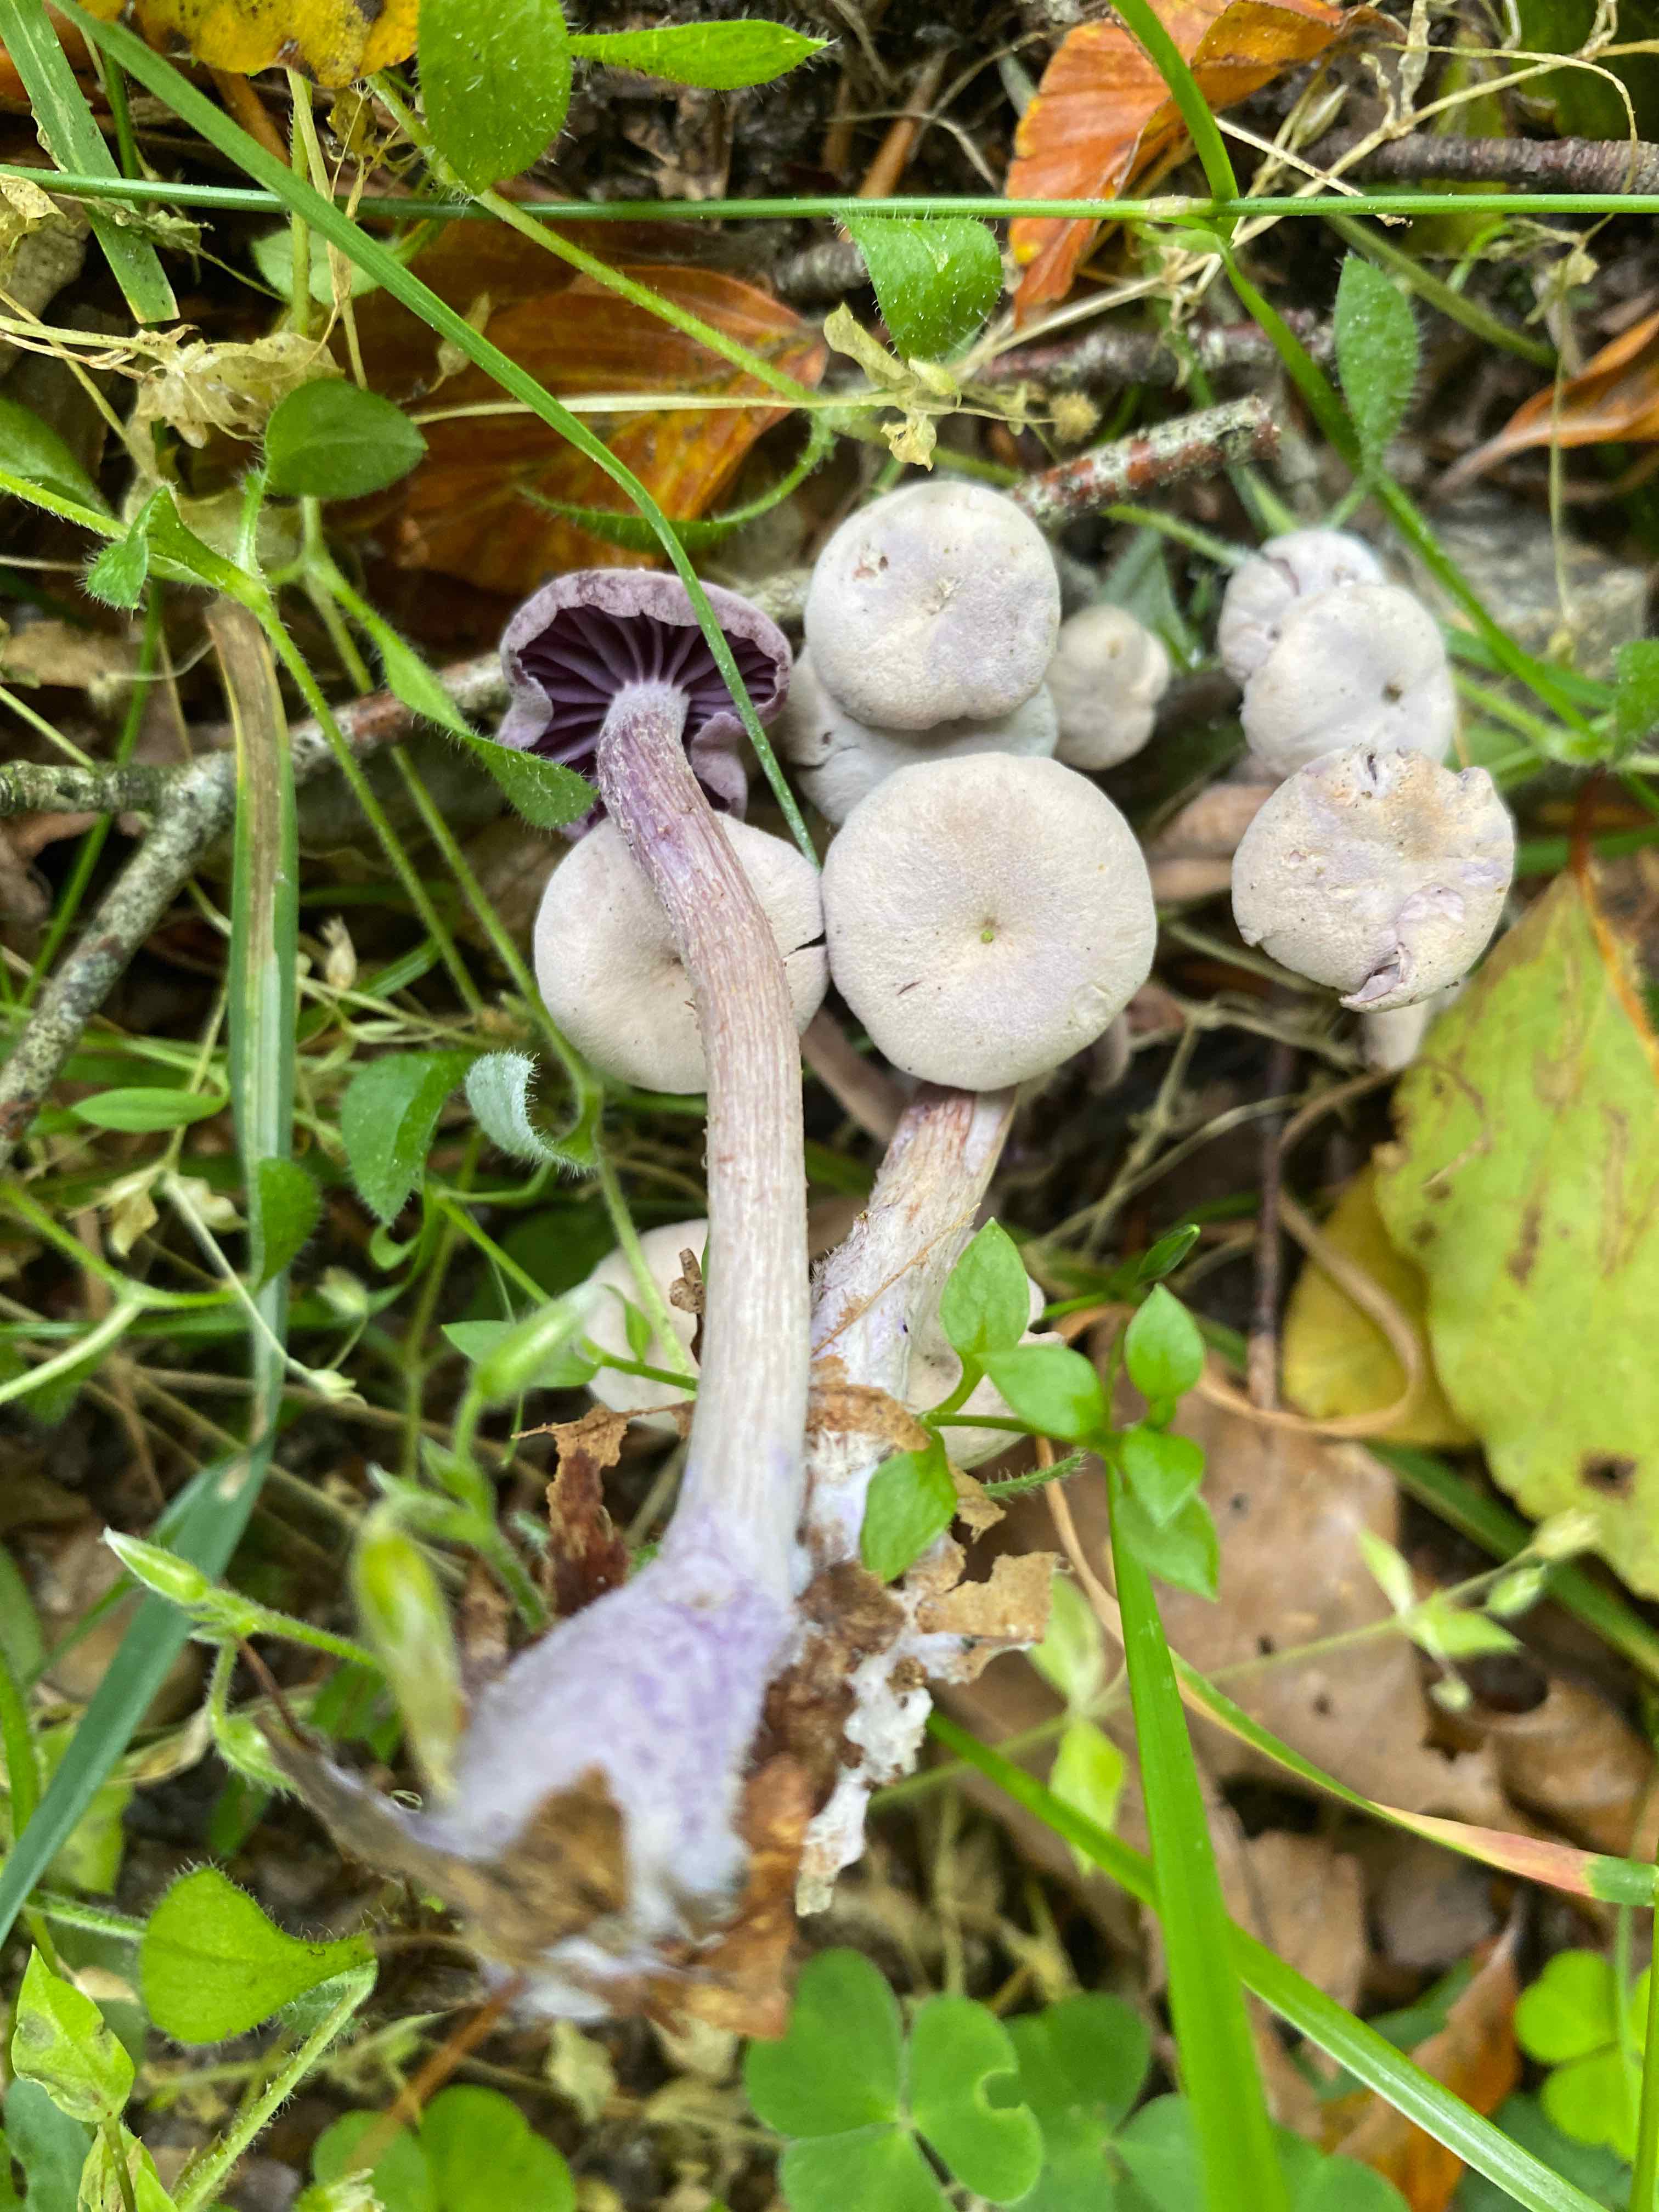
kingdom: Fungi
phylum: Basidiomycota
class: Agaricomycetes
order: Agaricales
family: Hydnangiaceae
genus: Laccaria
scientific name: Laccaria amethystina
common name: violet ametysthat
